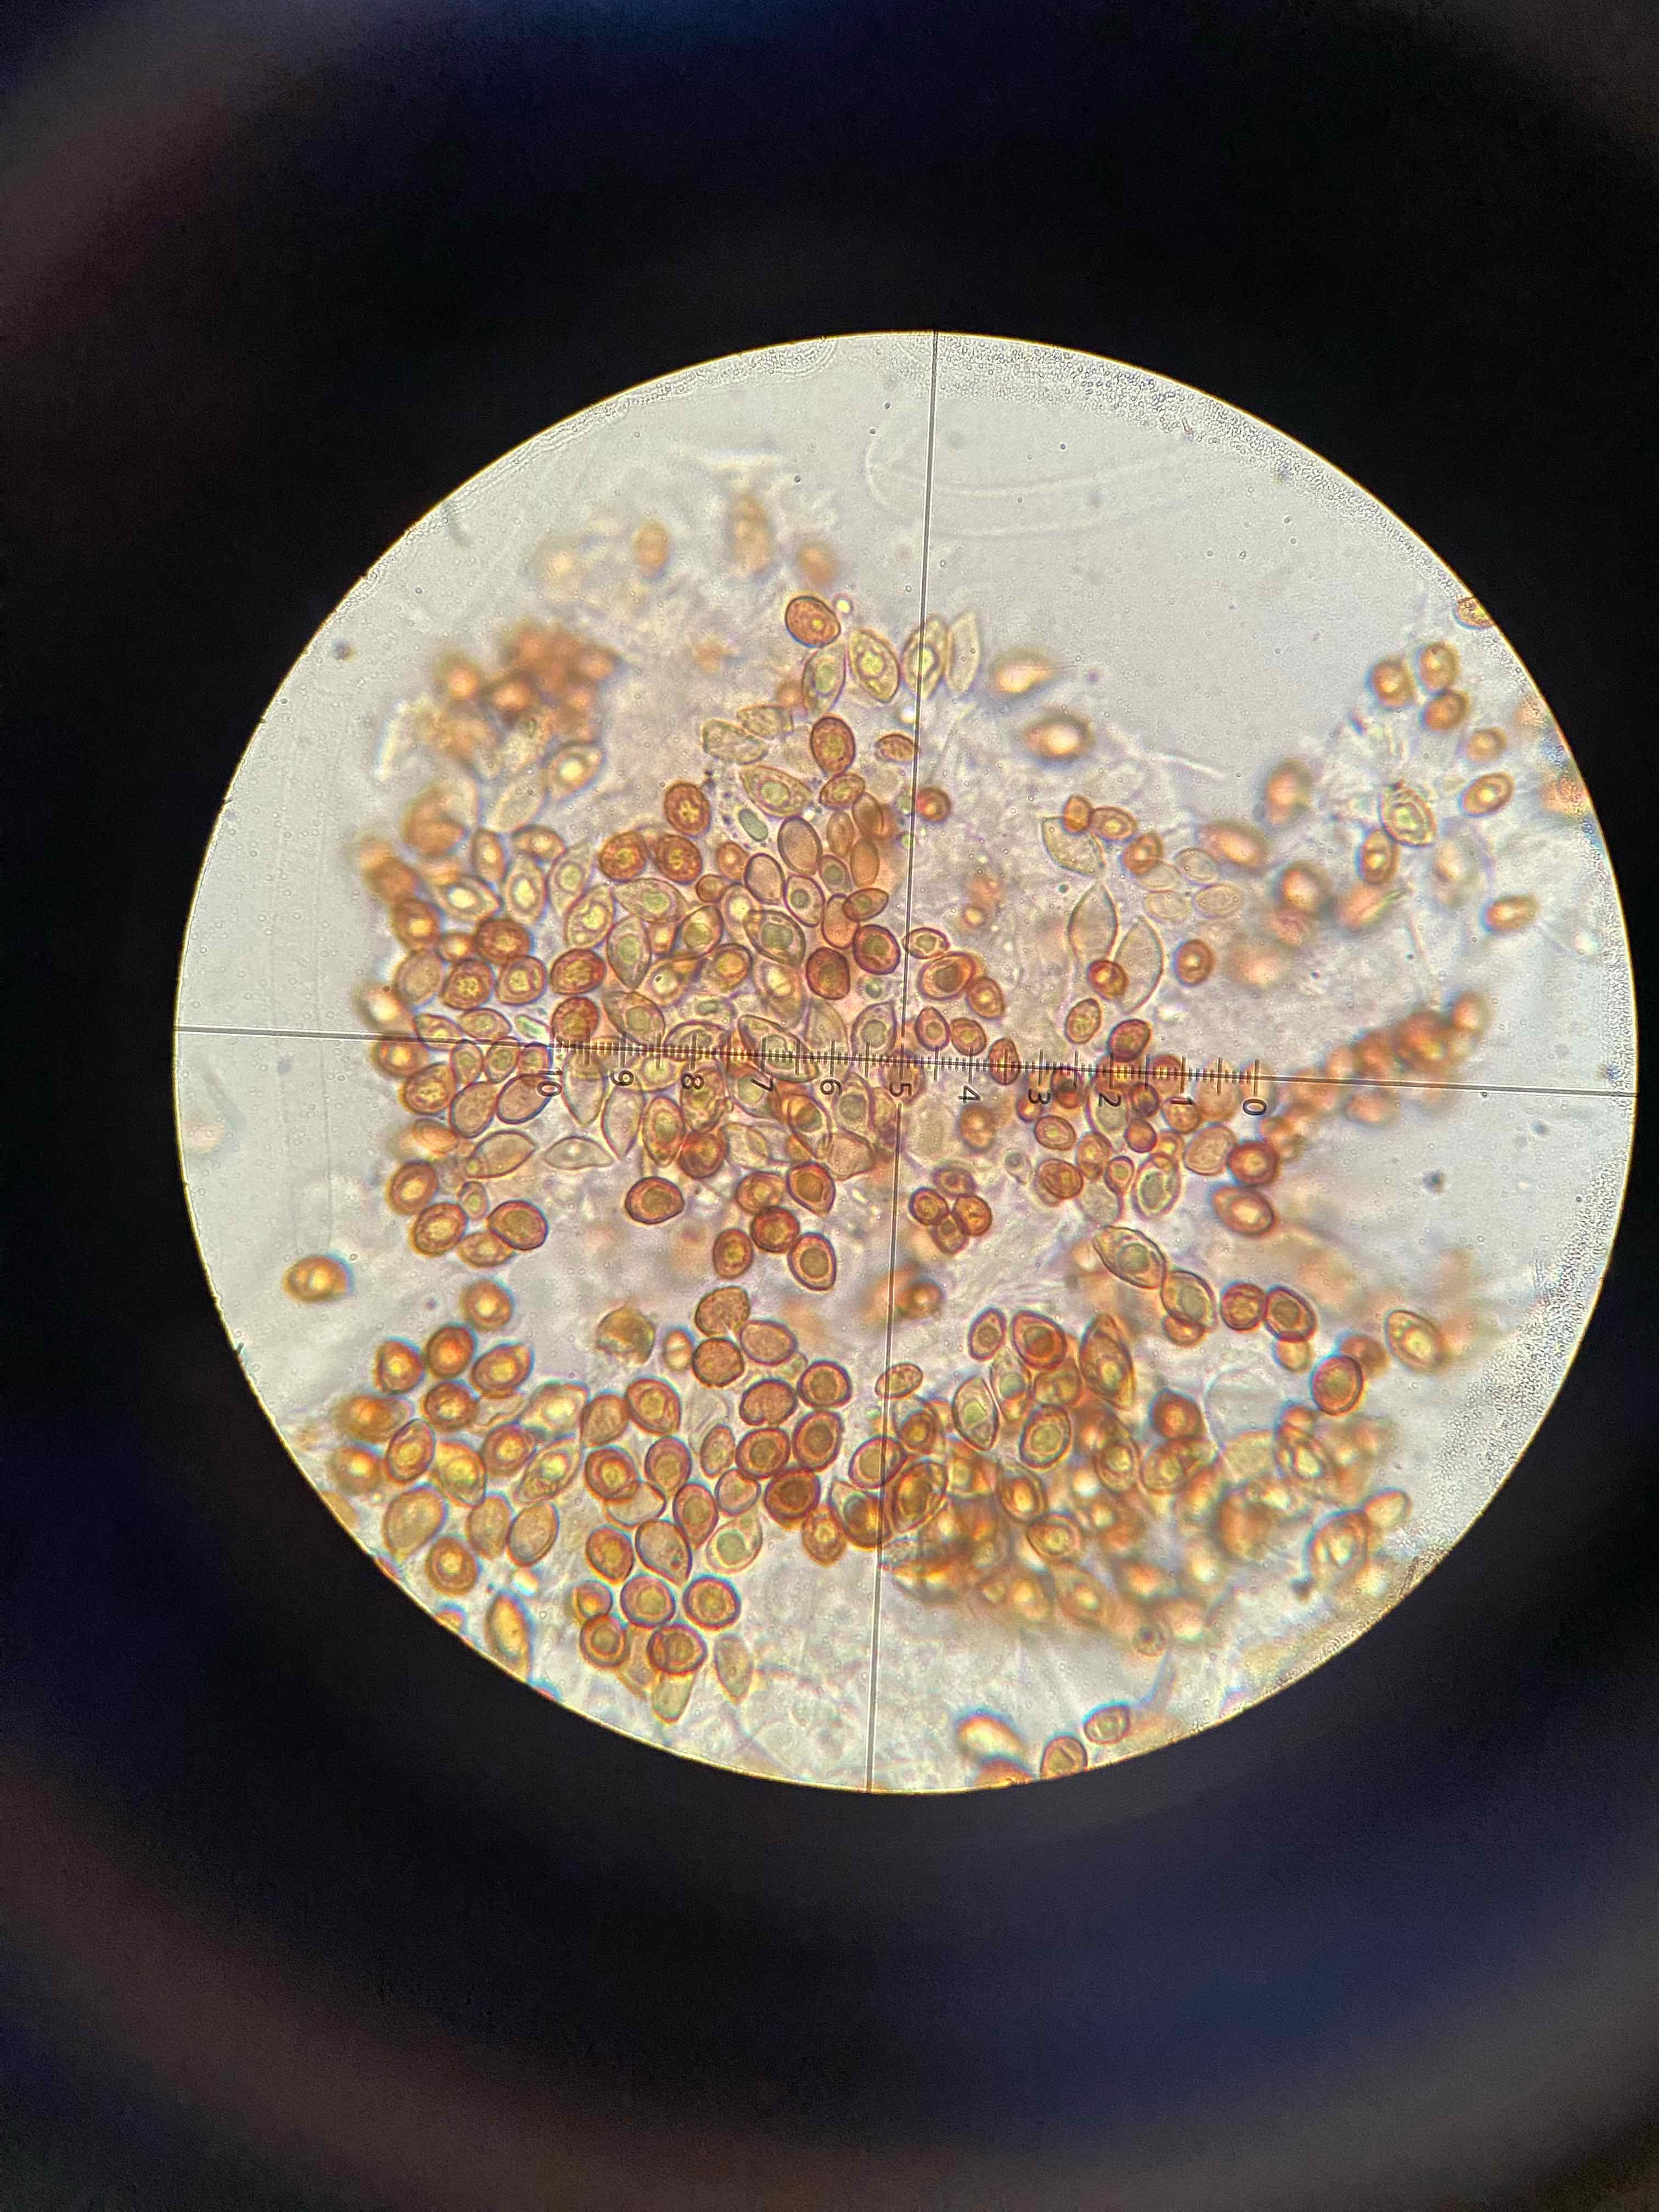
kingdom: Fungi
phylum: Basidiomycota
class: Agaricomycetes
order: Boletales
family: Paxillaceae
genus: Paxillus
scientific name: Paxillus involutus
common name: almindelig netbladhat
